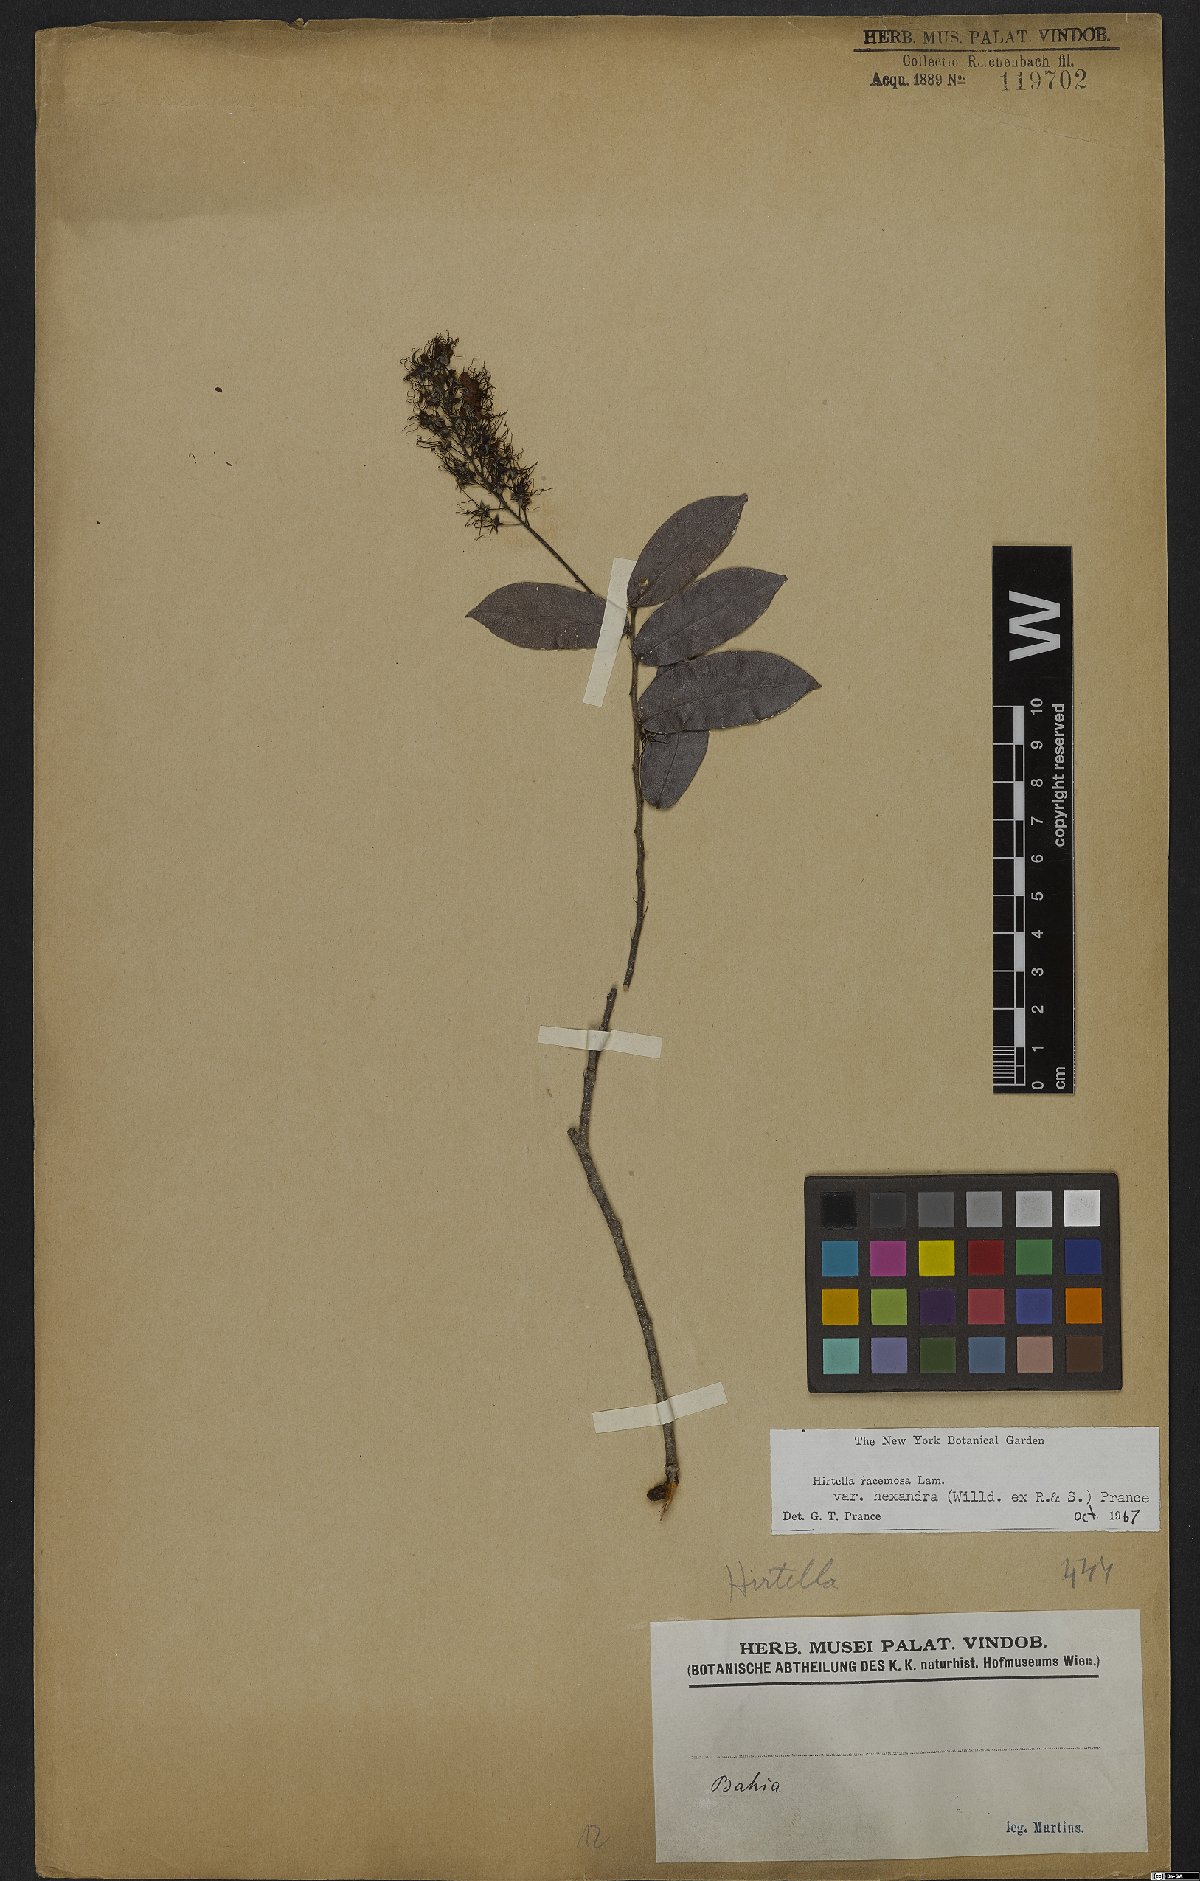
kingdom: Plantae
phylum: Tracheophyta
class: Magnoliopsida
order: Malpighiales
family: Chrysobalanaceae
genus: Hirtella
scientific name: Hirtella racemosa
